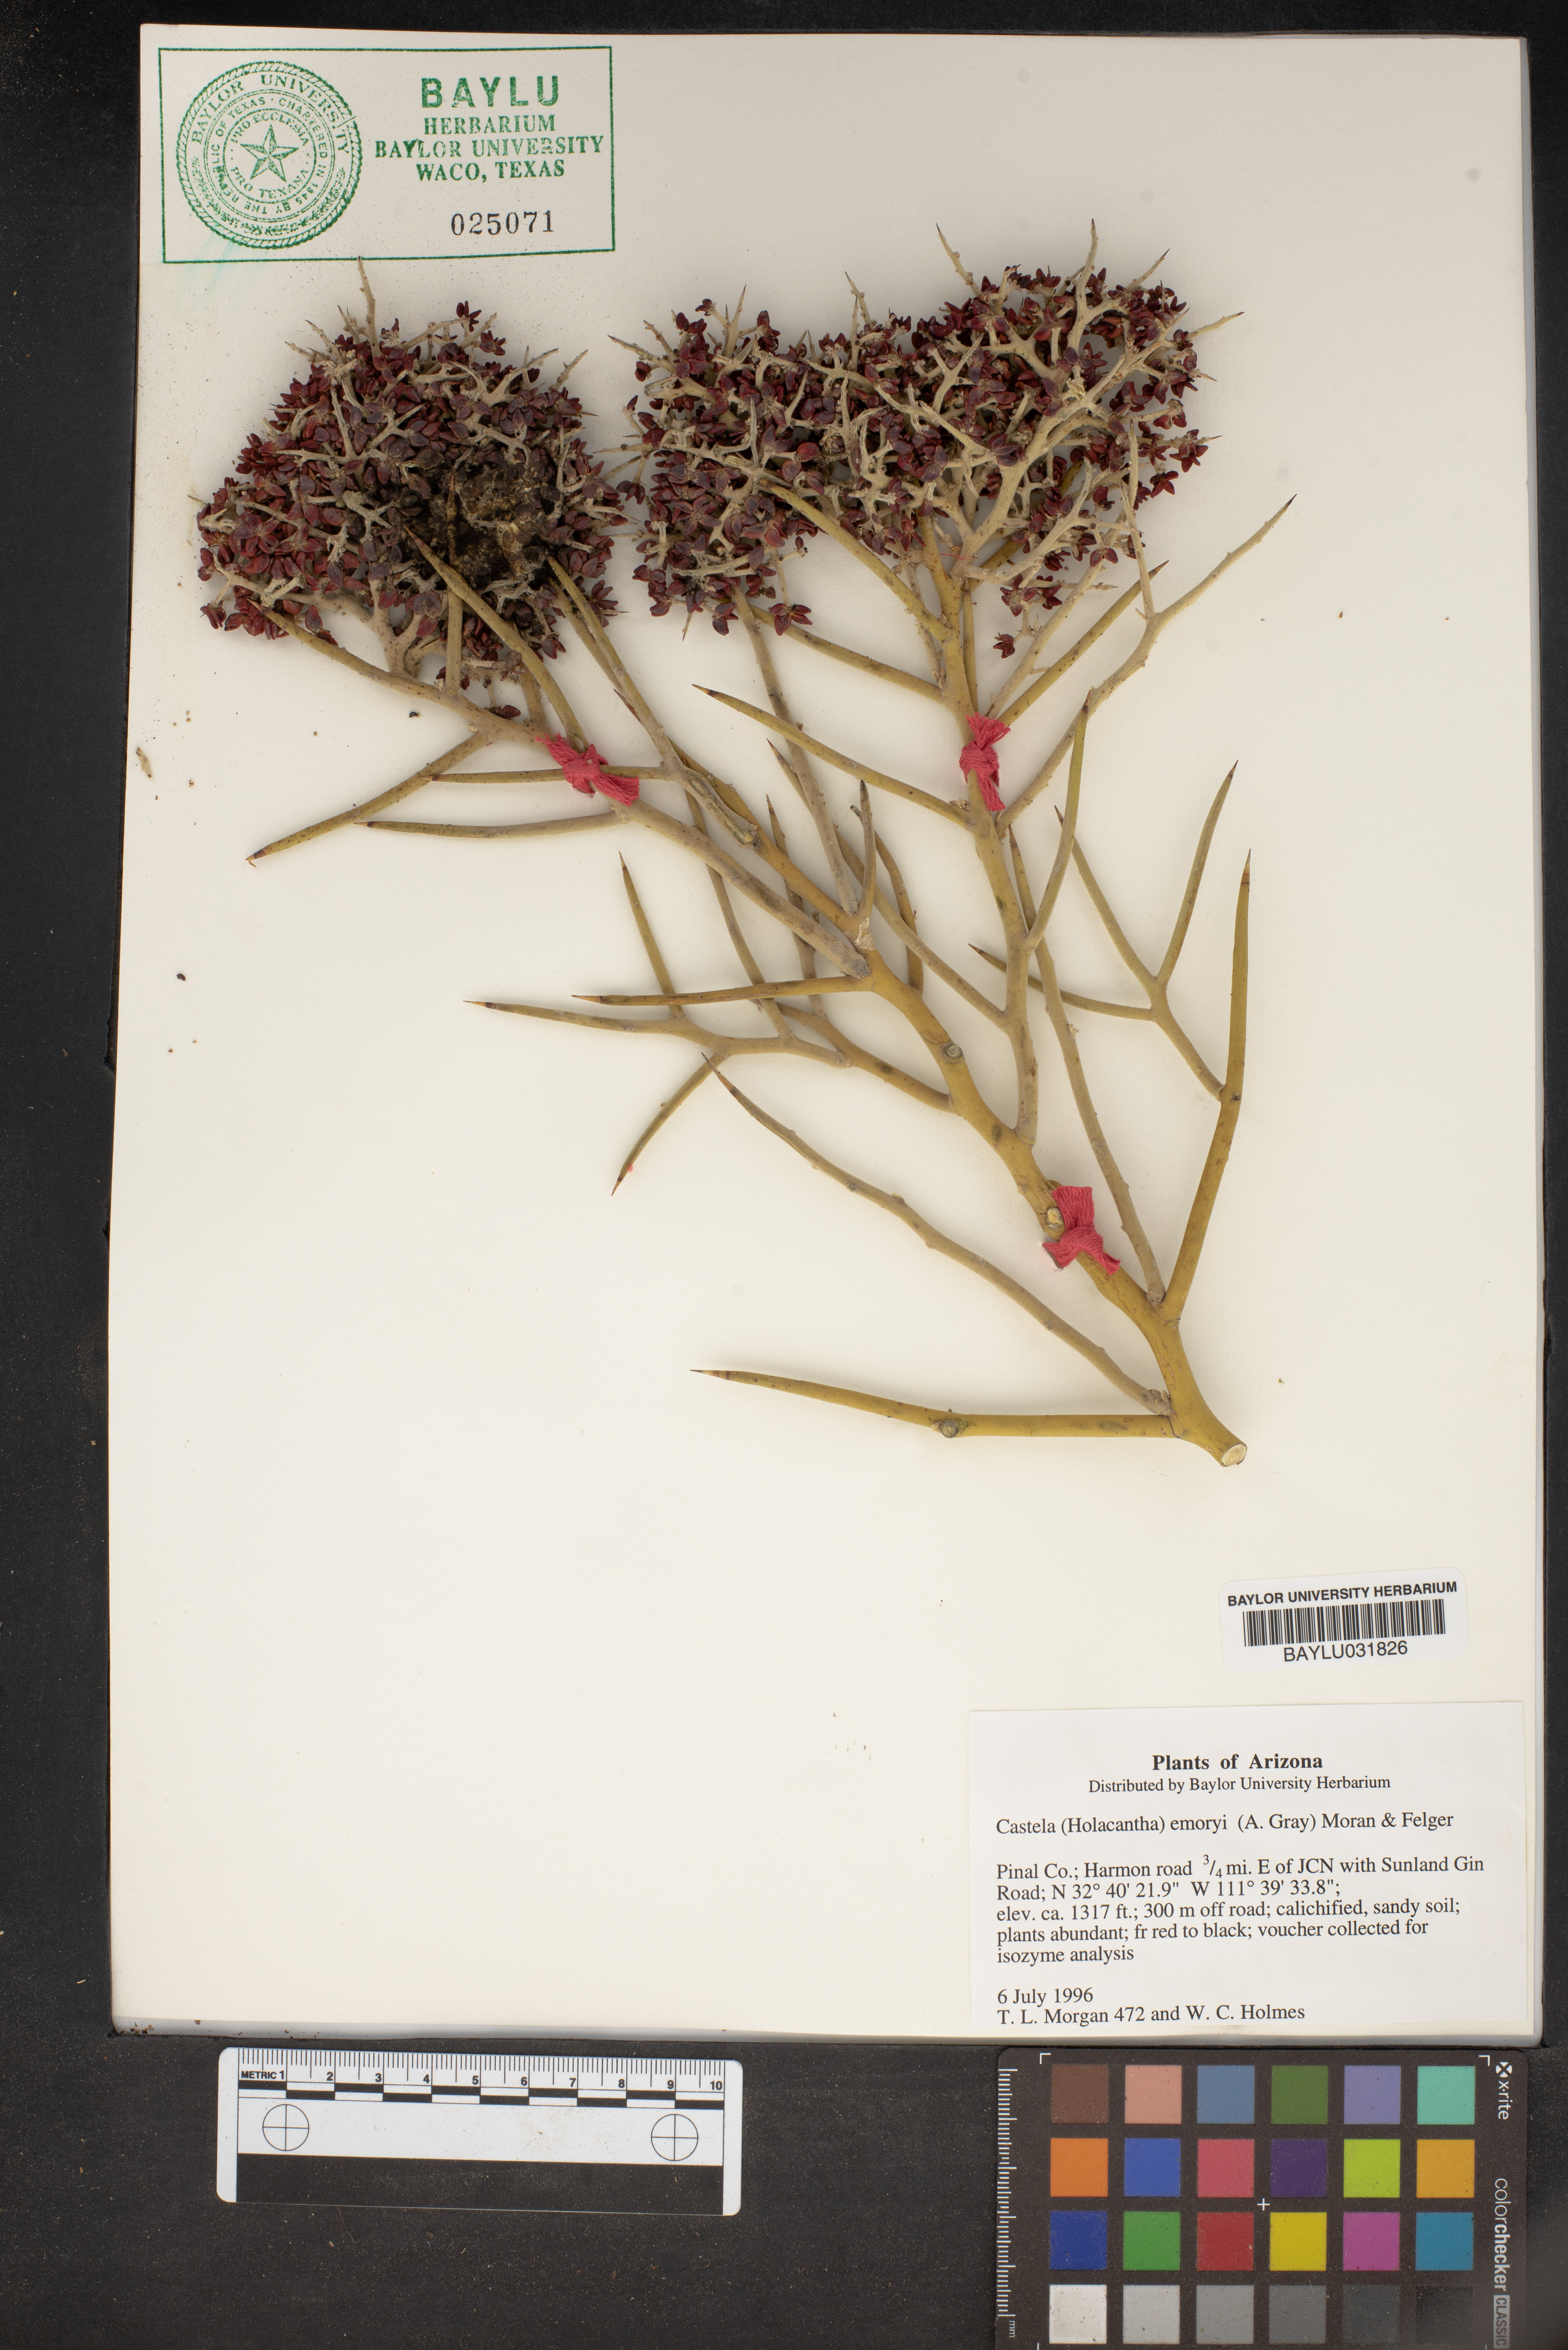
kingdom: Plantae
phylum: Tracheophyta
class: Magnoliopsida
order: Sapindales
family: Simaroubaceae
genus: Holacantha
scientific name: Holacantha emoryi
